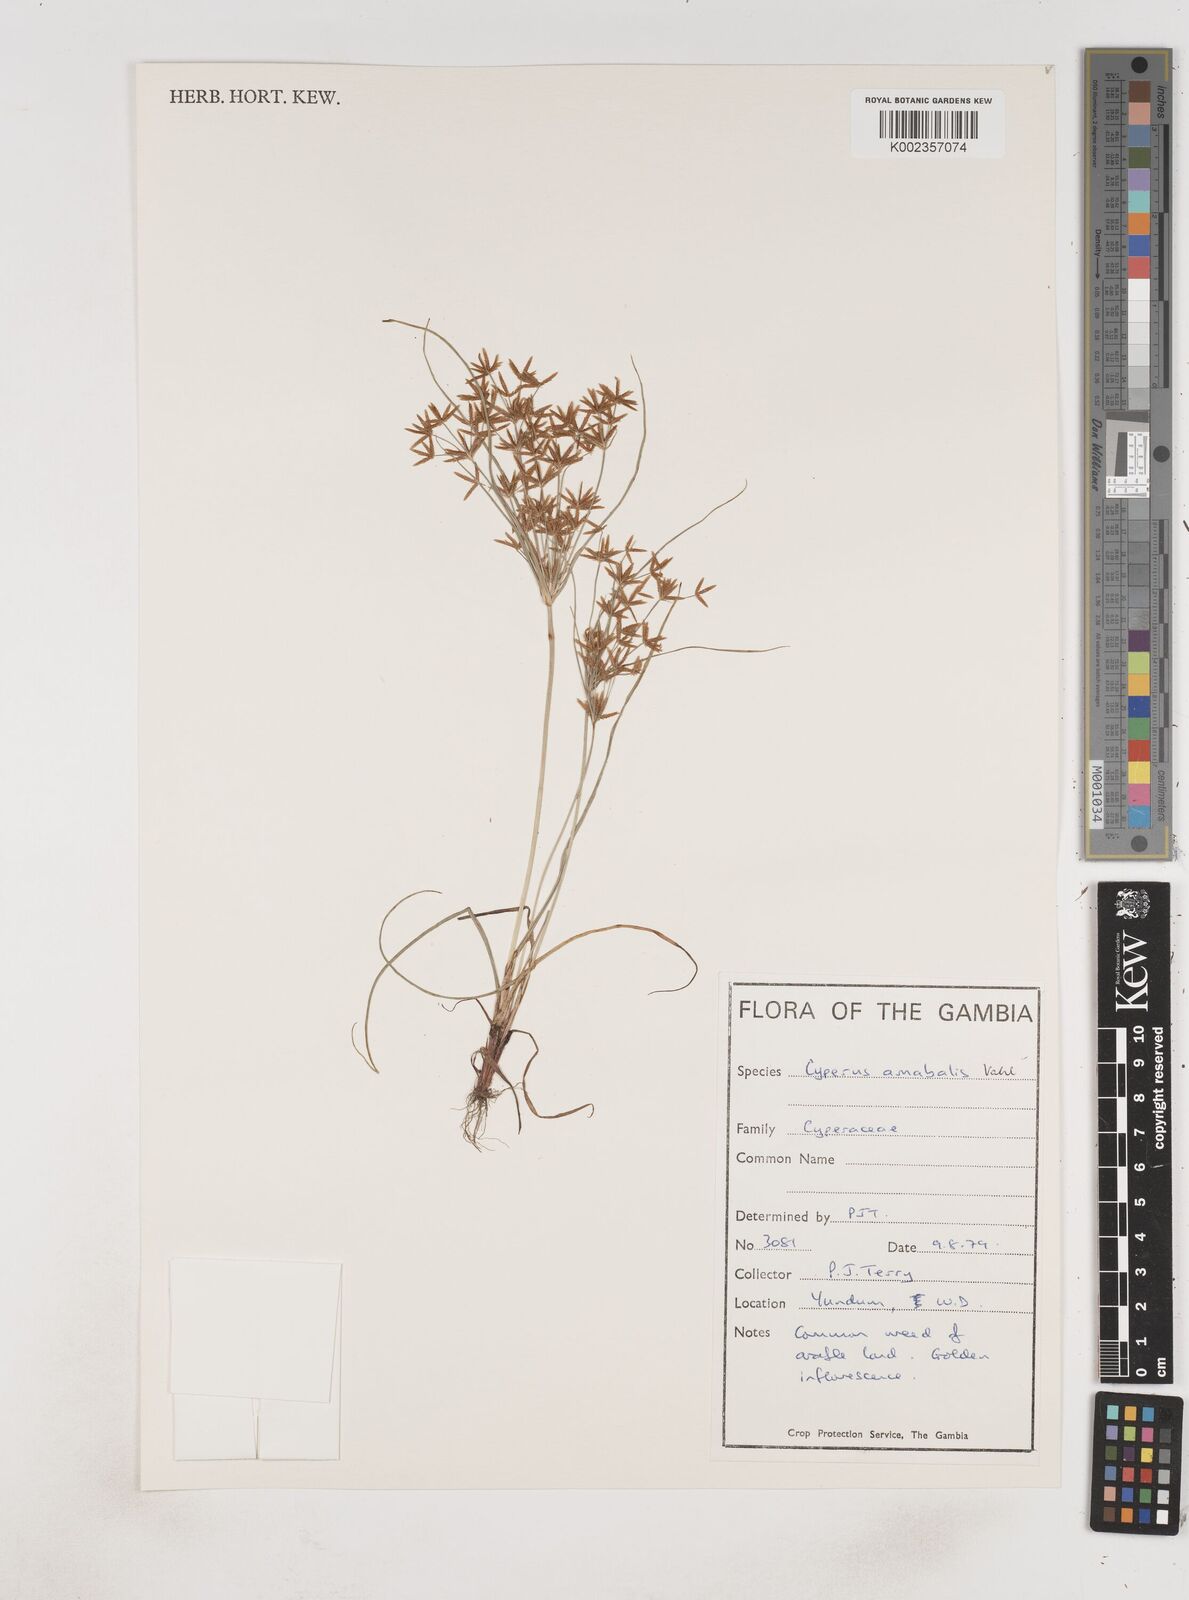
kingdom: Plantae
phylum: Tracheophyta
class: Liliopsida
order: Poales
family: Cyperaceae
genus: Cyperus
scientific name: Cyperus amabilis
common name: Foothill flat sedge
